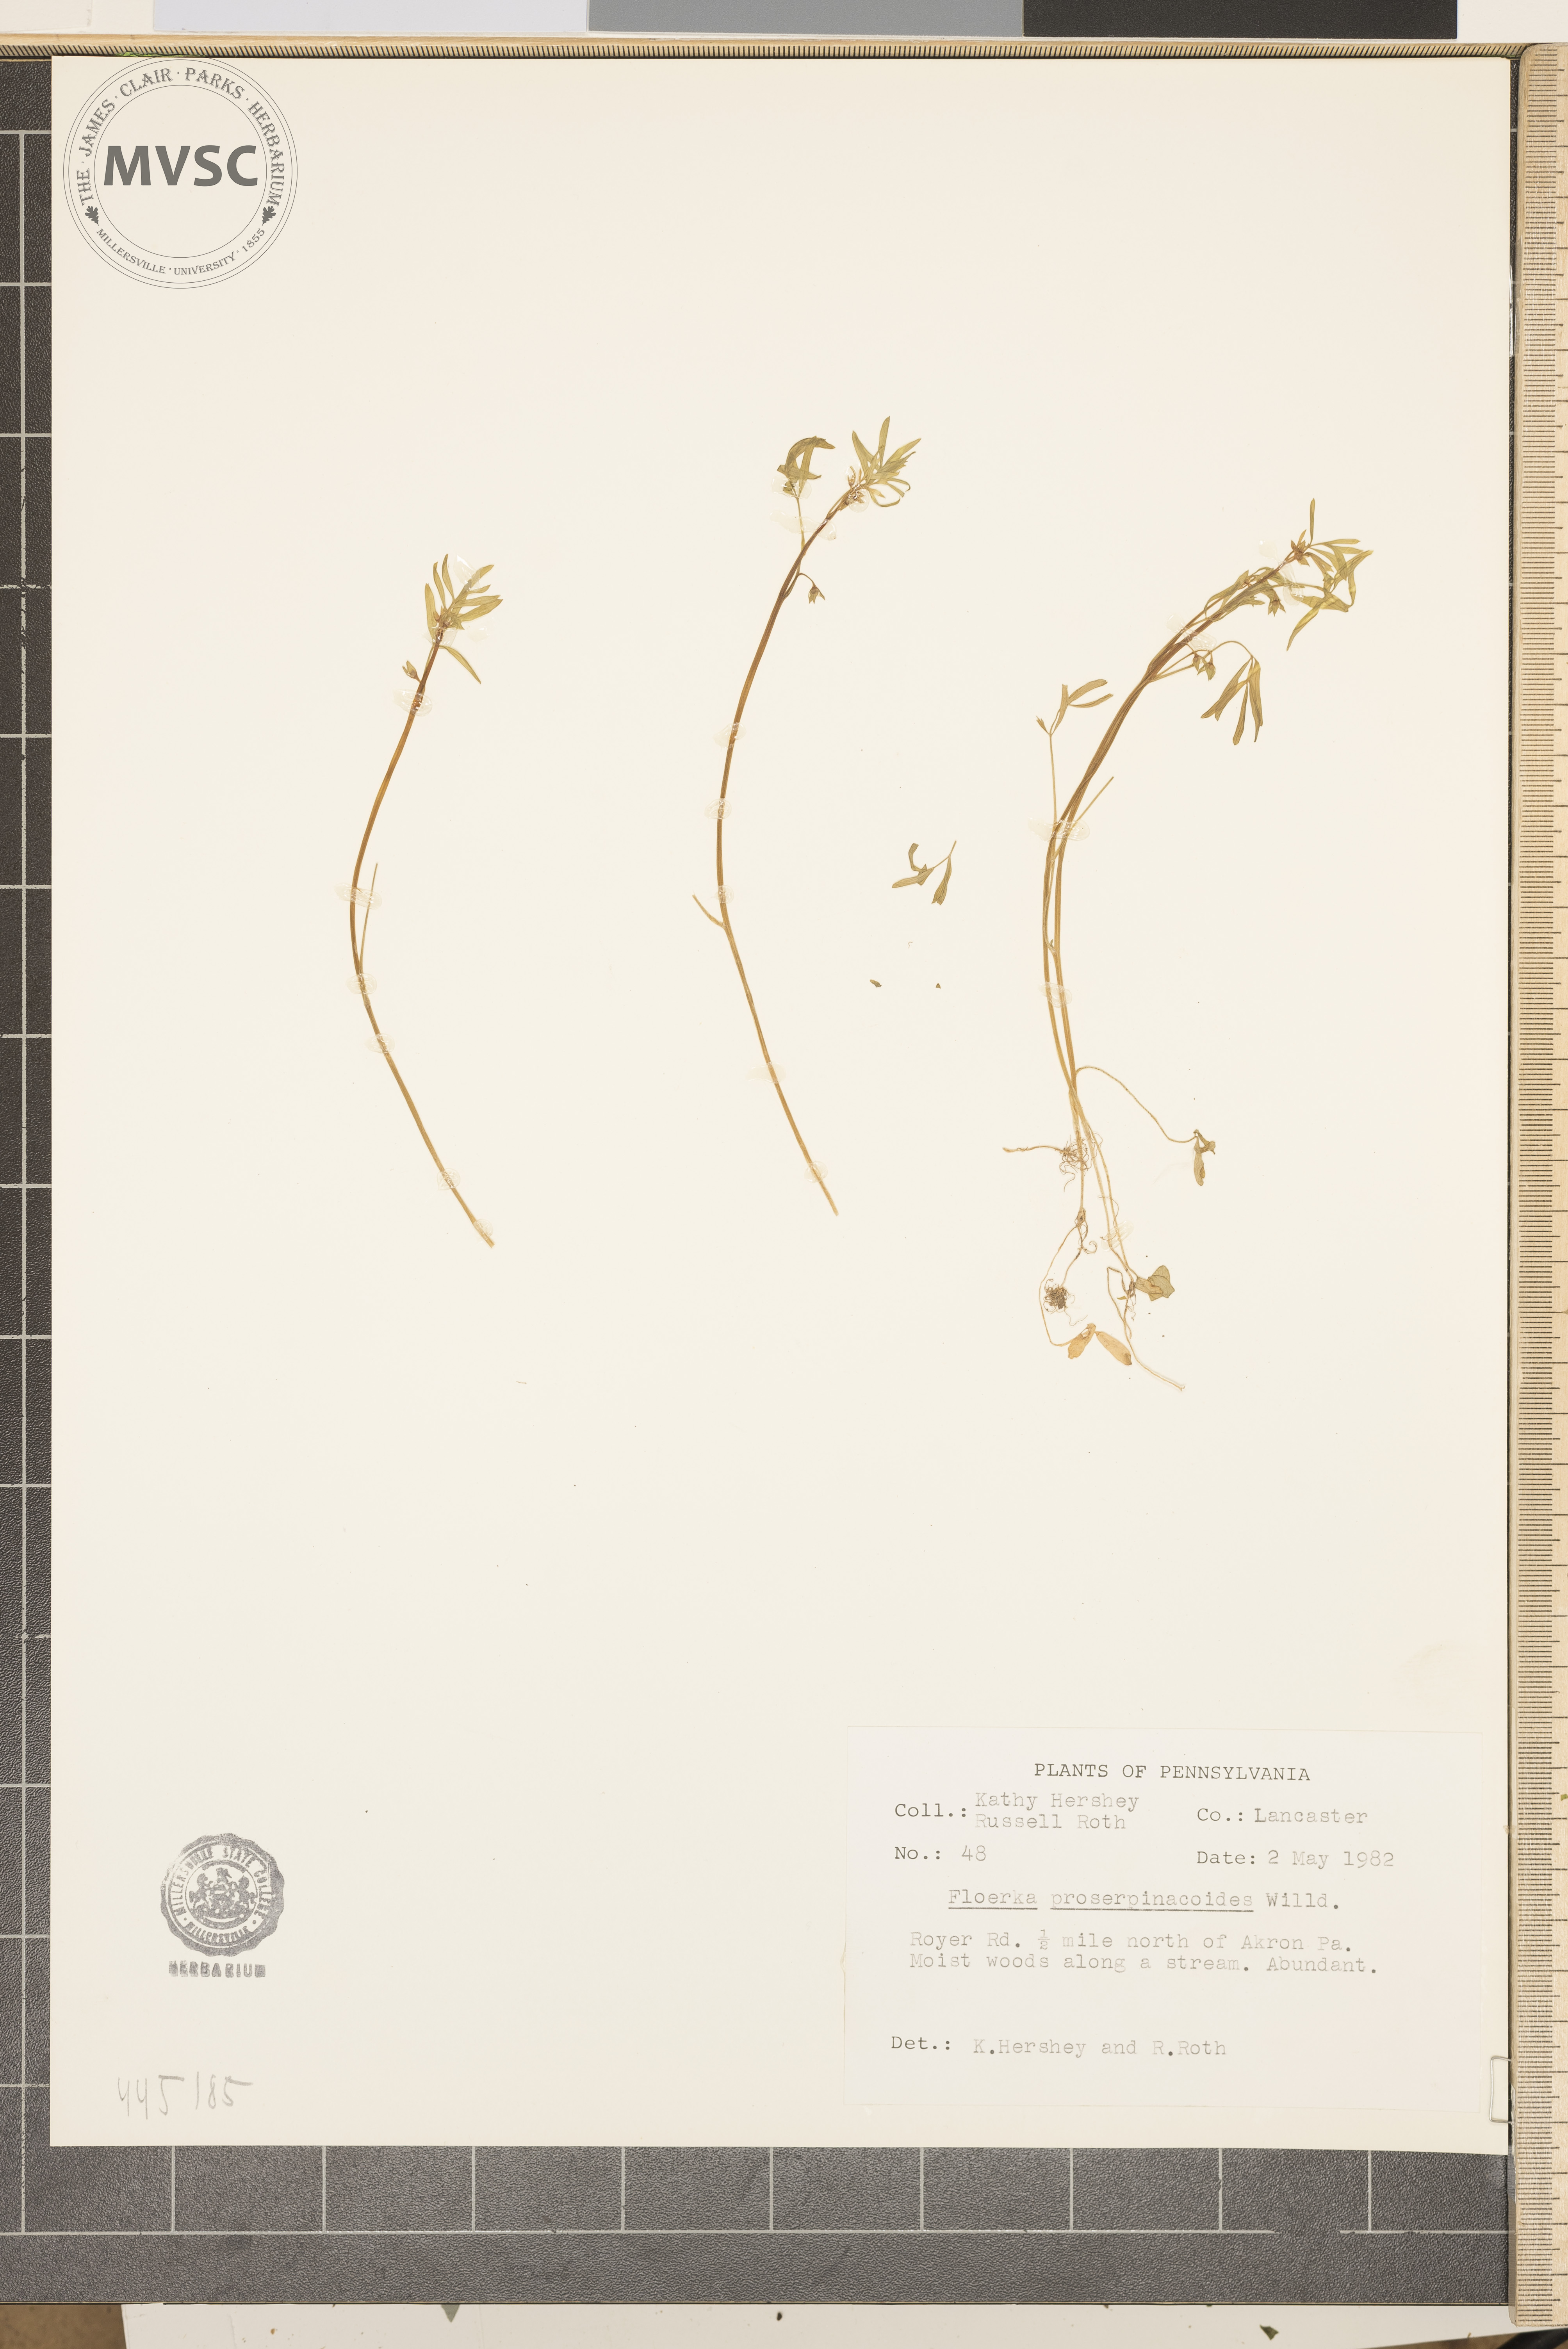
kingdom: Plantae
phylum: Tracheophyta
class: Magnoliopsida
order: Brassicales
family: Limnanthaceae
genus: Floerkea
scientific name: Floerkea proserpinacoides
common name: False mermaid
